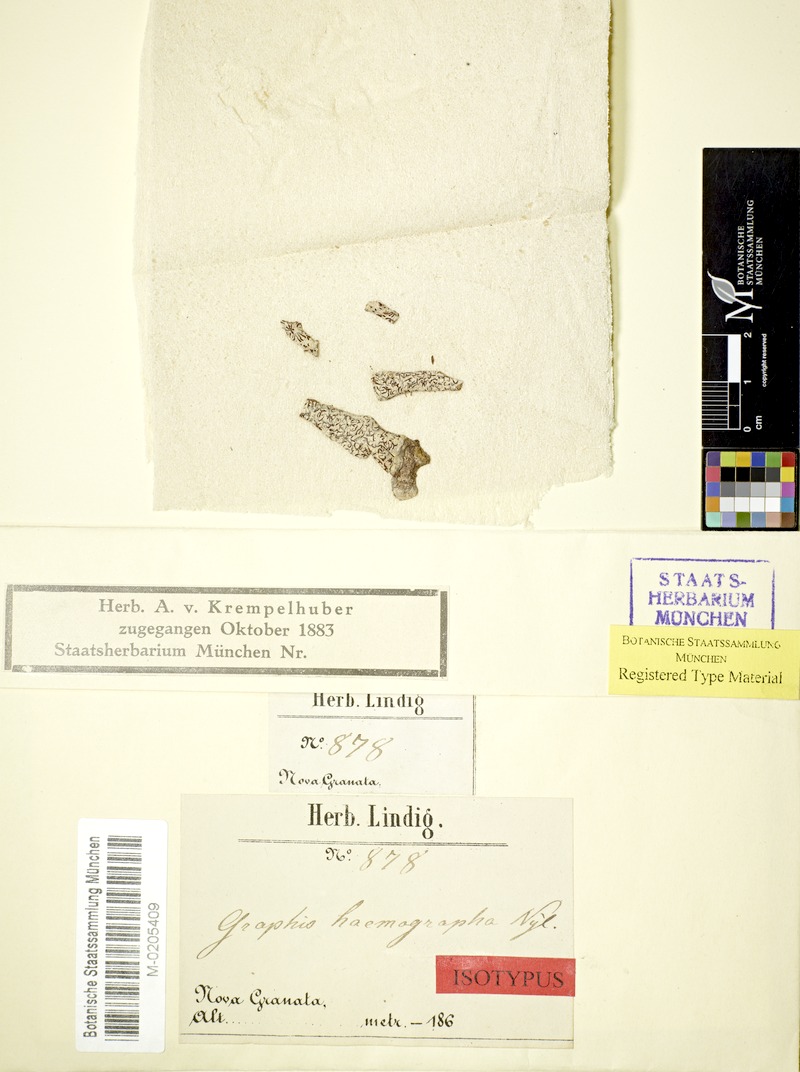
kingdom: Fungi
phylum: Ascomycota
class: Lecanoromycetes
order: Ostropales
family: Graphidaceae
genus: Thalloloma
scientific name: Thalloloma haemographum
